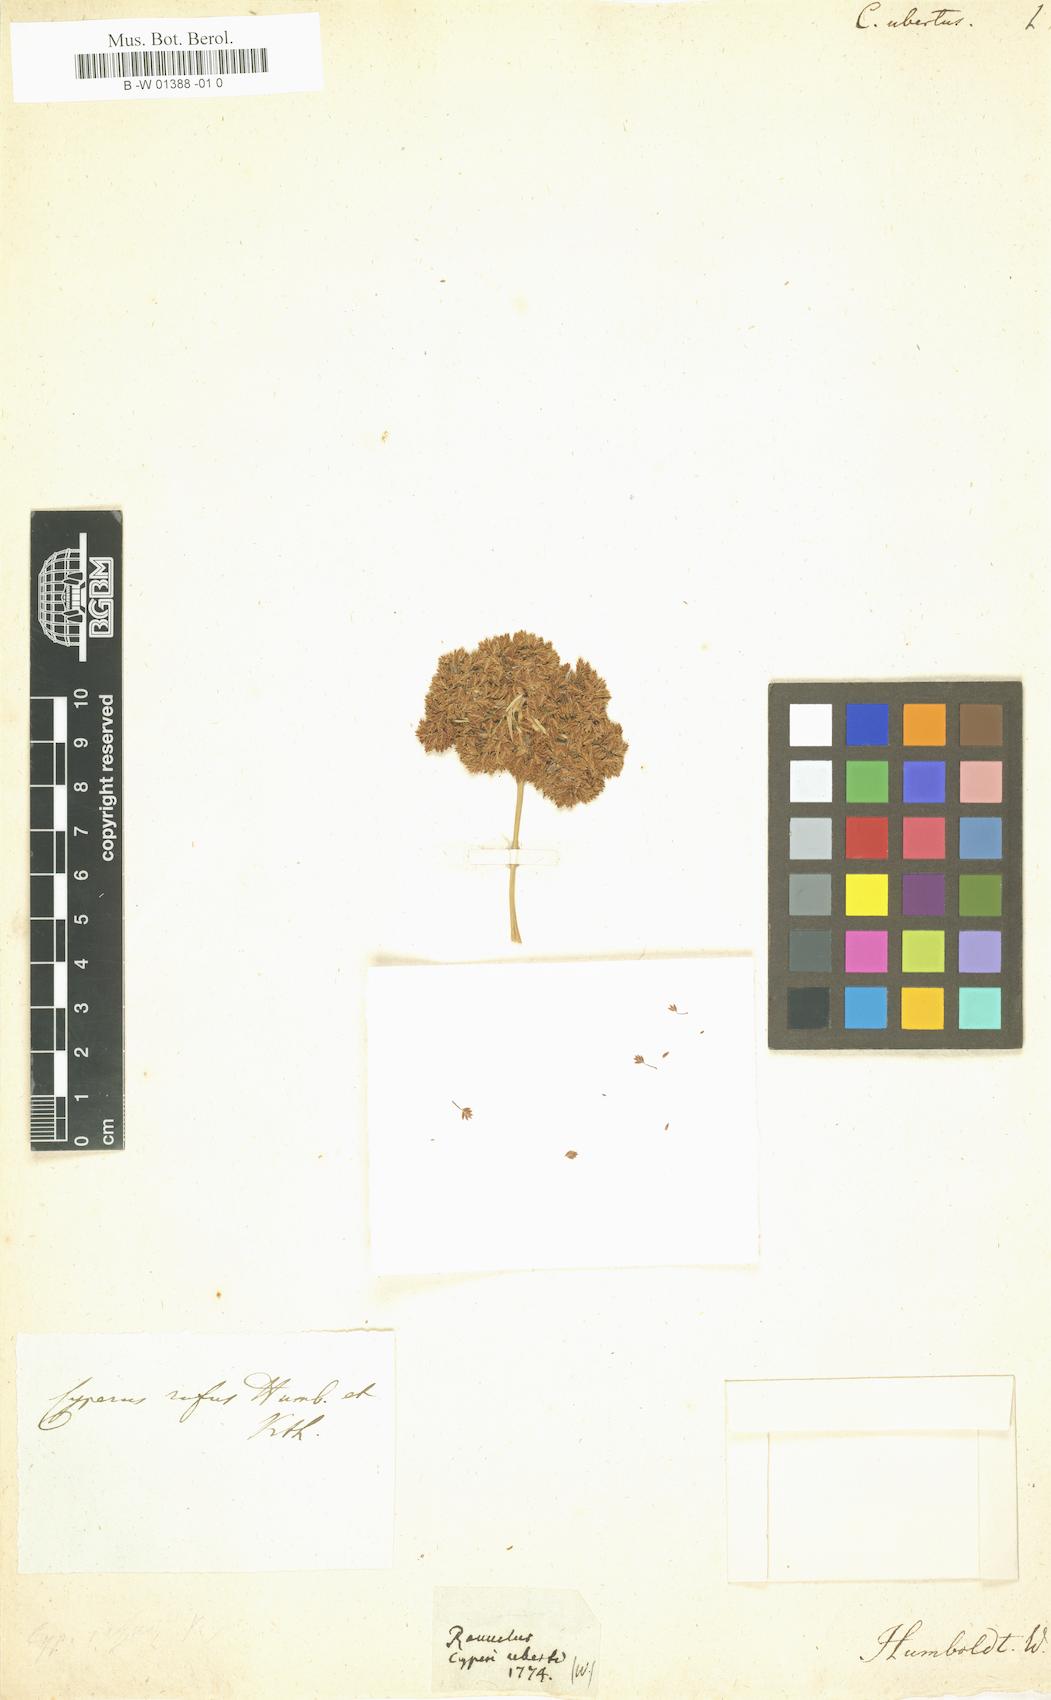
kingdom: Plantae
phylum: Tracheophyta
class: Liliopsida
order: Poales
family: Cyperaceae
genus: Cyperus
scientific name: Cyperus ligularis
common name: Swamp flat sedge
